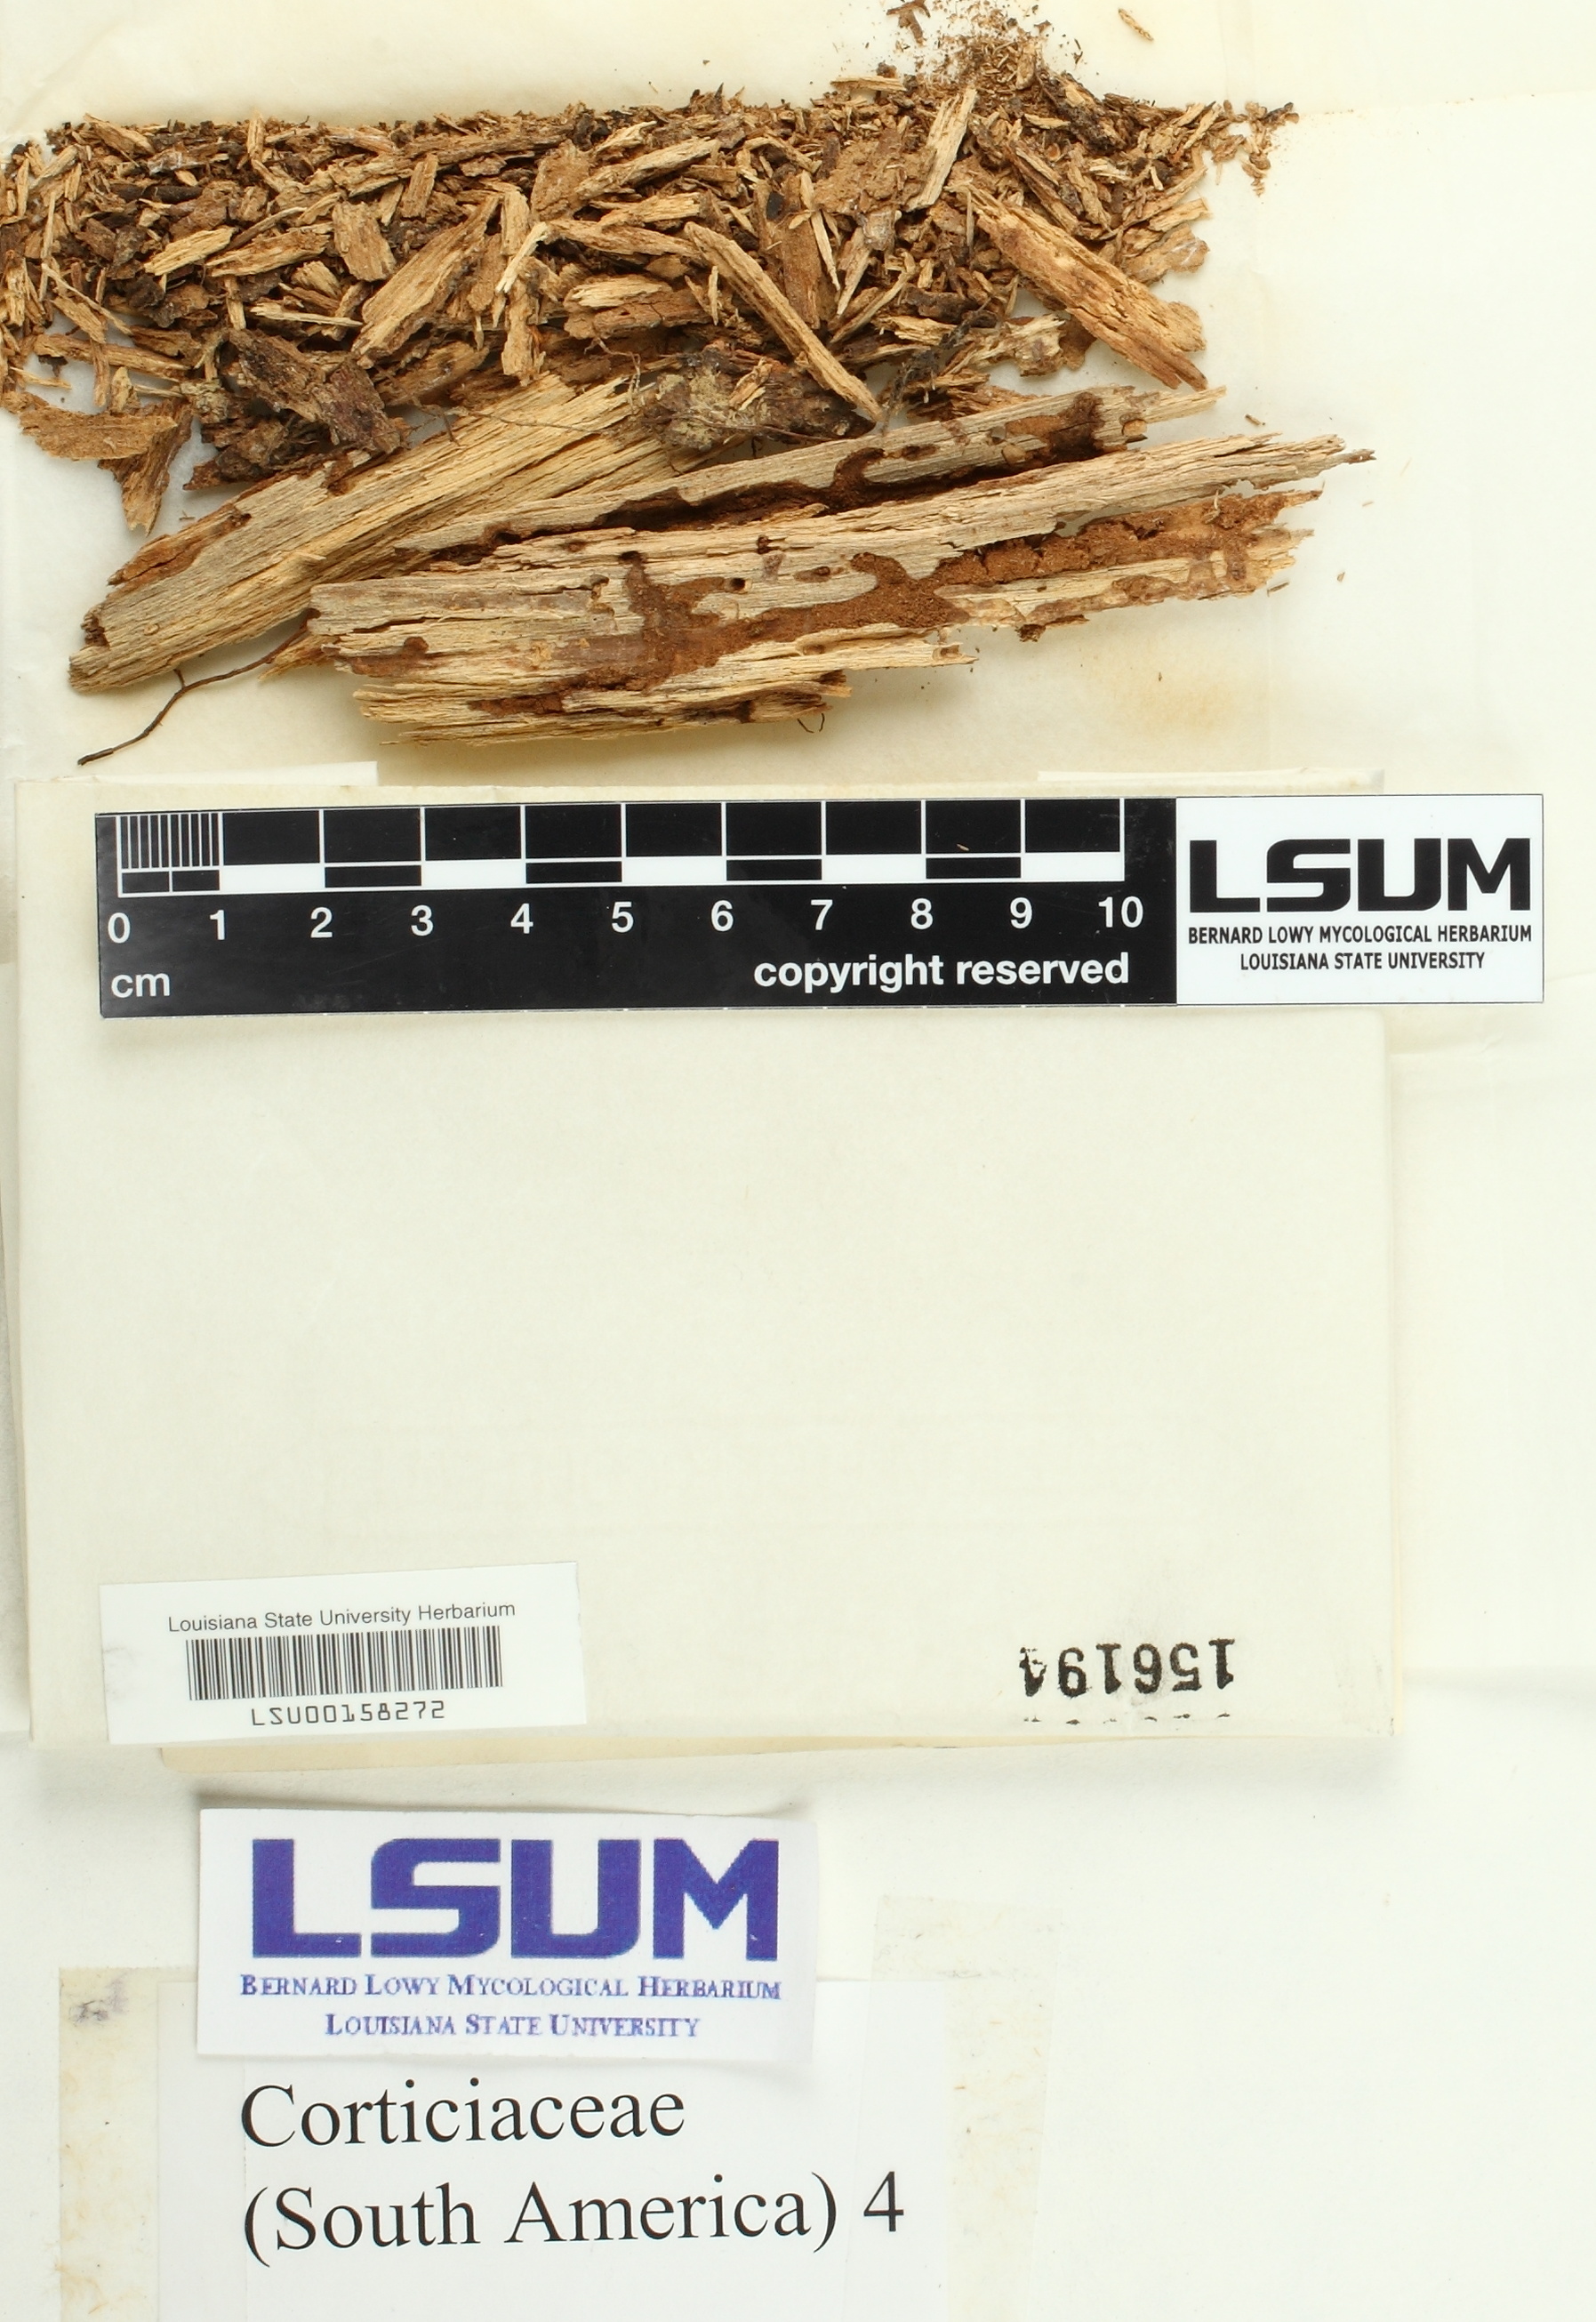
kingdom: Fungi
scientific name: Fungi
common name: Fungi
